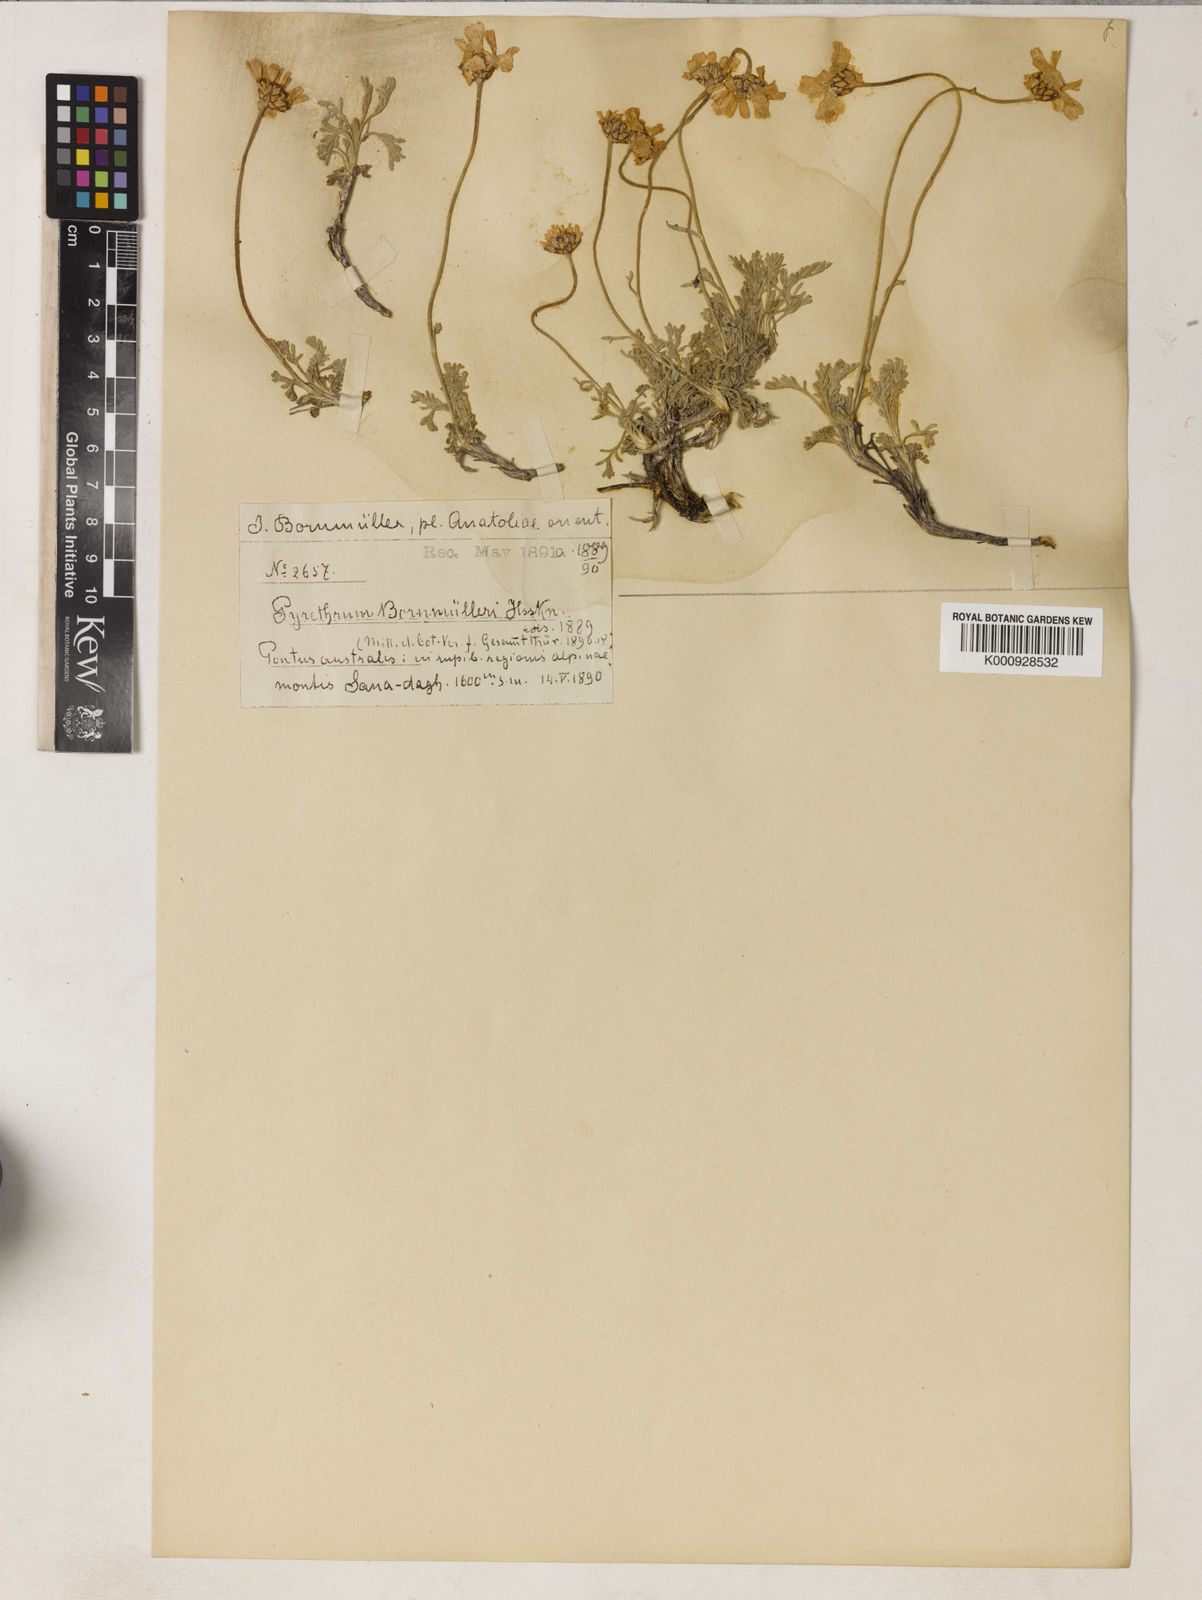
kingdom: Plantae
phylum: Tracheophyta
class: Magnoliopsida
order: Asterales
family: Asteraceae
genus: Tanacetum
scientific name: Tanacetum armenum
